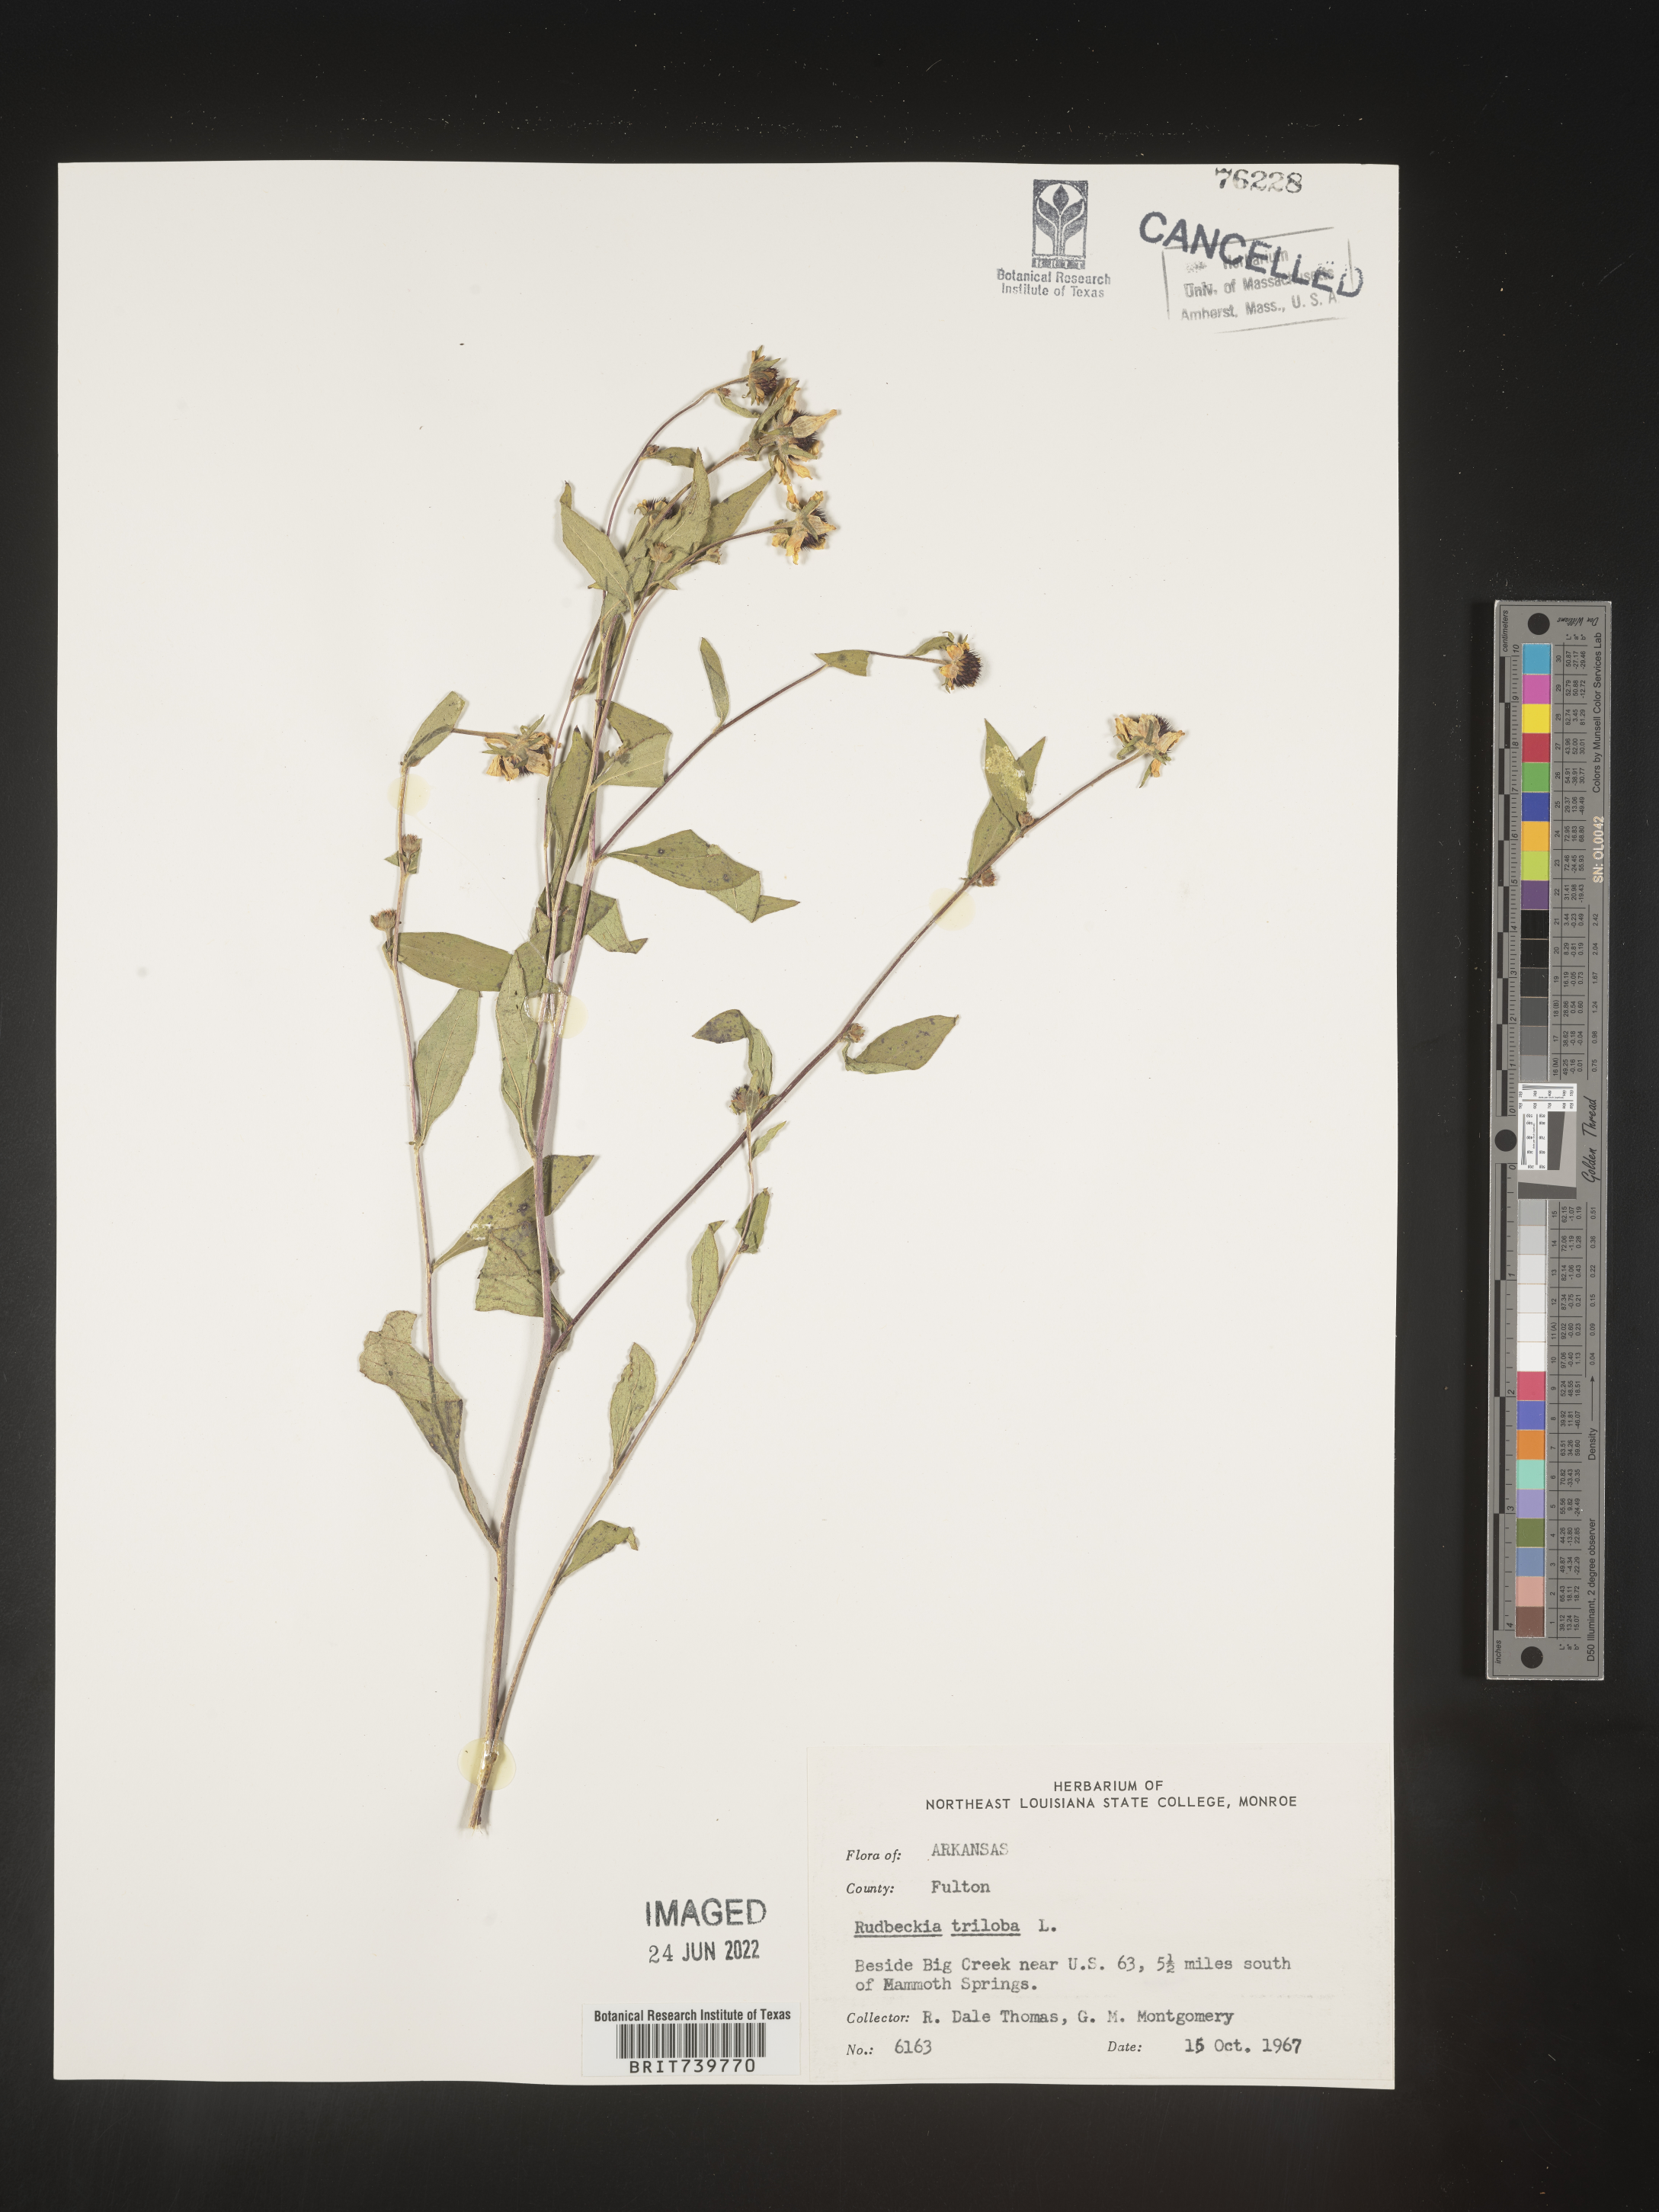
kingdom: Plantae
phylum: Tracheophyta
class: Magnoliopsida
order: Asterales
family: Asteraceae
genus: Rudbeckia
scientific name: Rudbeckia triloba
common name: Thin-leaved coneflower
